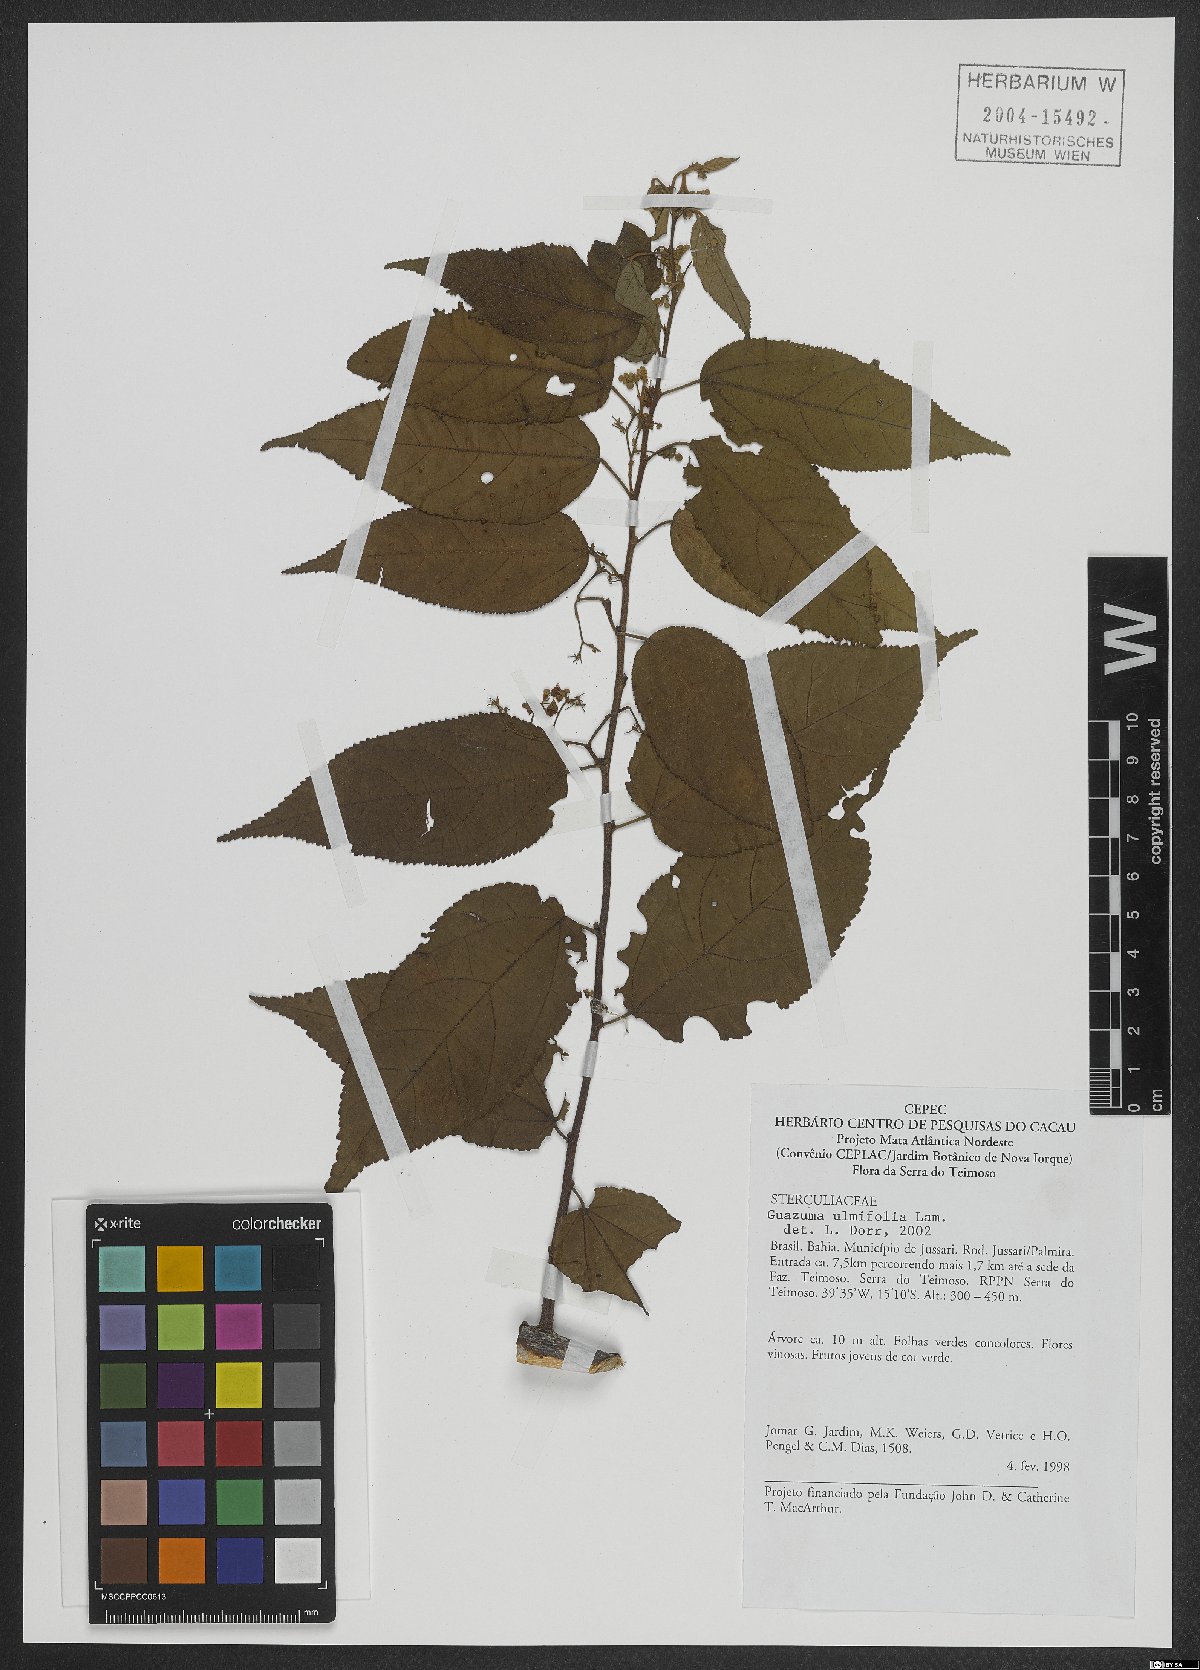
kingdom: Plantae
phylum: Tracheophyta
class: Magnoliopsida
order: Malvales
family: Malvaceae
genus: Guazuma
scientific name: Guazuma ulmifolia
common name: Bastard-cedar
